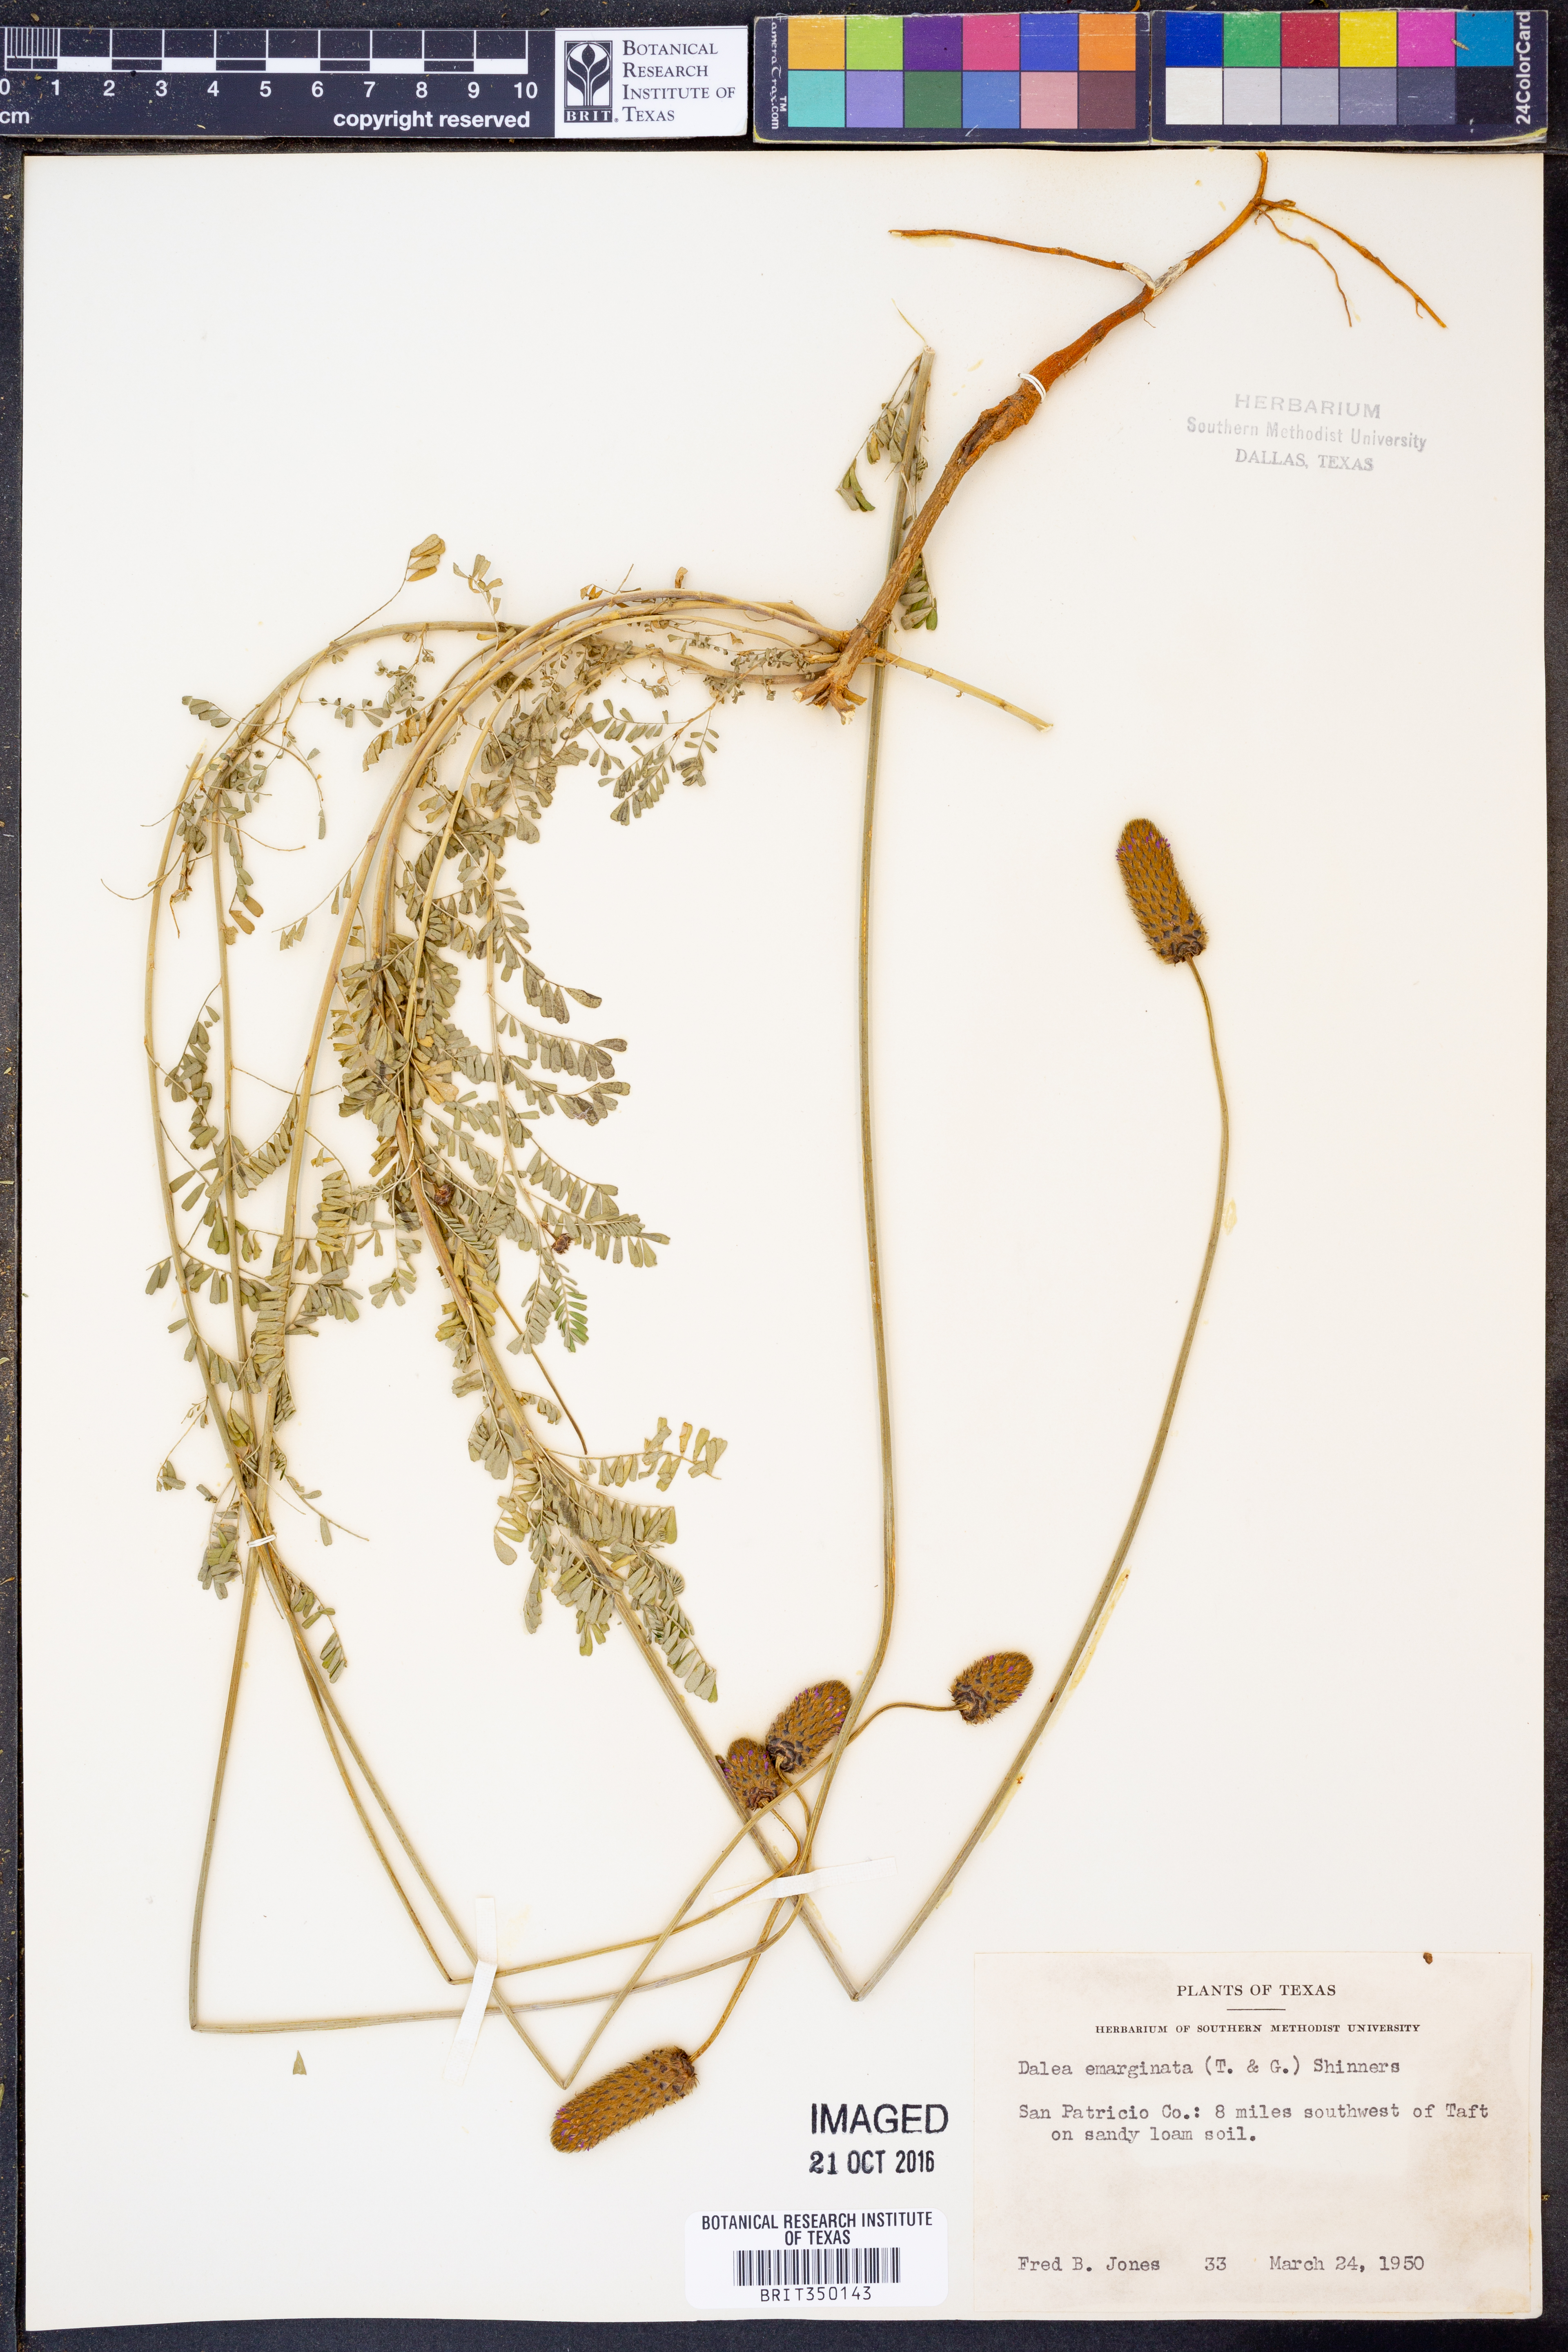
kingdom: Plantae
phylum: Tracheophyta
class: Magnoliopsida
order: Fabales
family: Fabaceae
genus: Dalea
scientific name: Dalea emarginata
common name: Wedgeleaf prairie clover
